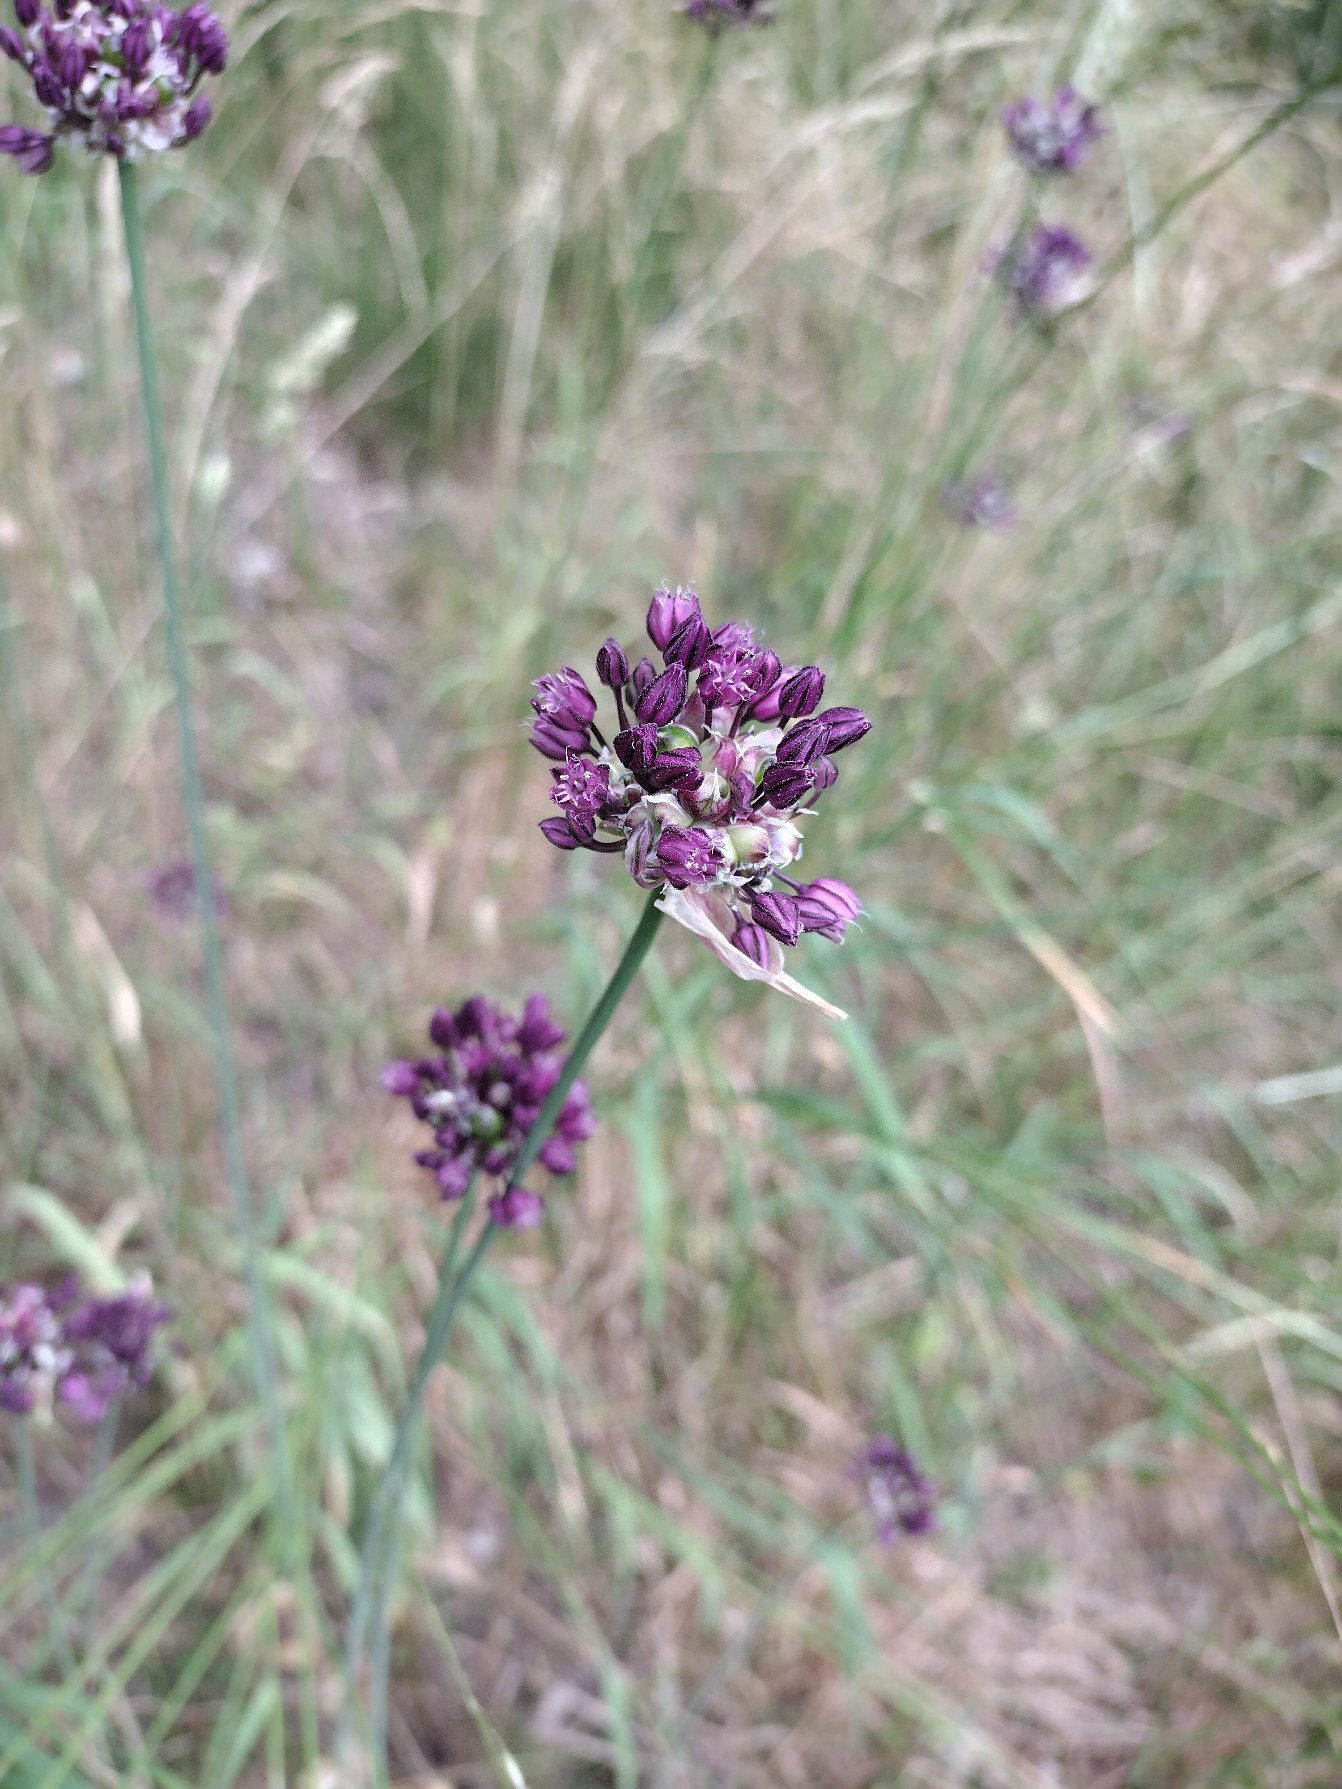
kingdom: Plantae
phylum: Tracheophyta
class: Liliopsida
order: Asparagales
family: Amaryllidaceae
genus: Allium
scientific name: Allium scorodoprasum
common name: Skov-løg
